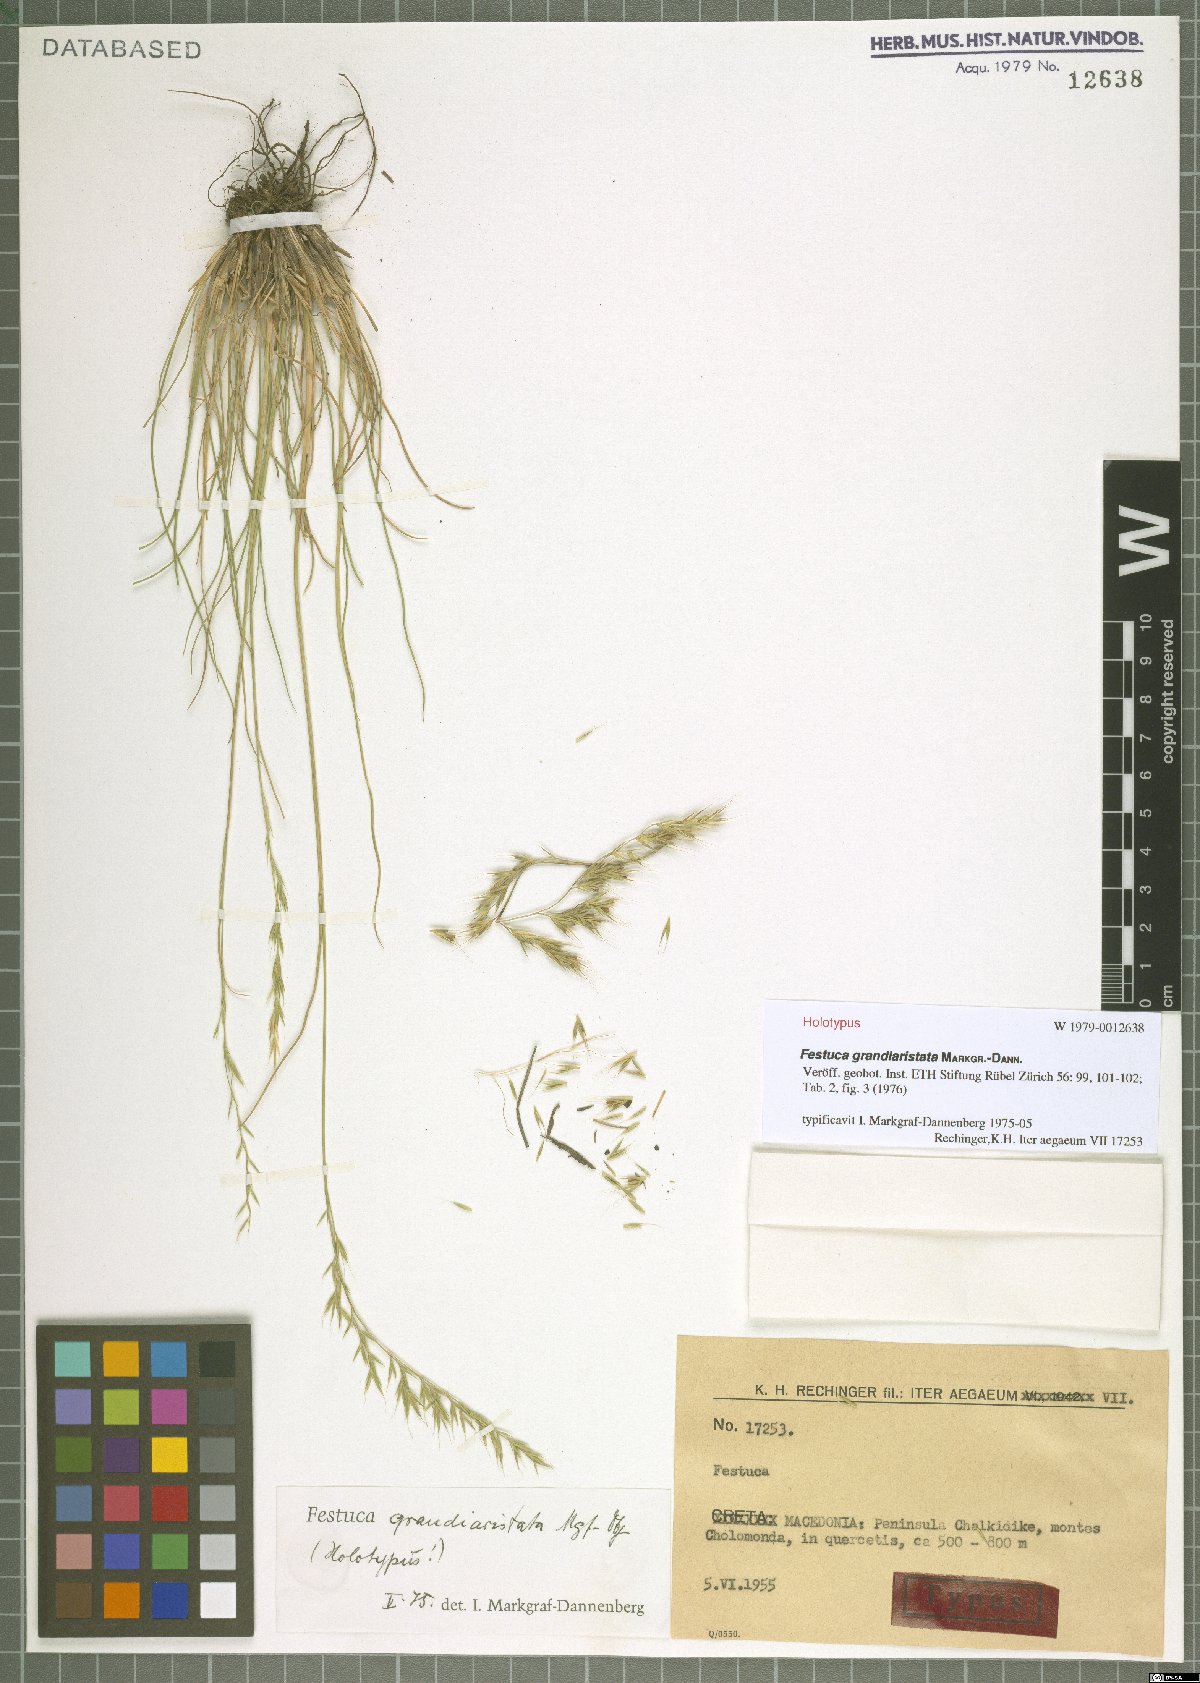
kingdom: Plantae
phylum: Tracheophyta
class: Liliopsida
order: Poales
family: Poaceae
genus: Festuca
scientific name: Festuca grandiaristata
